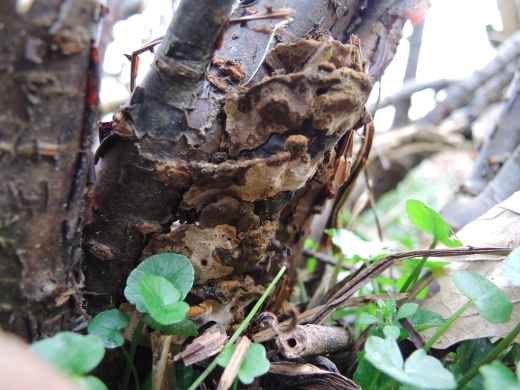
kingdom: Fungi
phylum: Basidiomycota
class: Agaricomycetes
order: Hymenochaetales
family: Hymenochaetaceae
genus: Phylloporia
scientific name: Phylloporia ribis
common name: ribs-ildporesvamp
